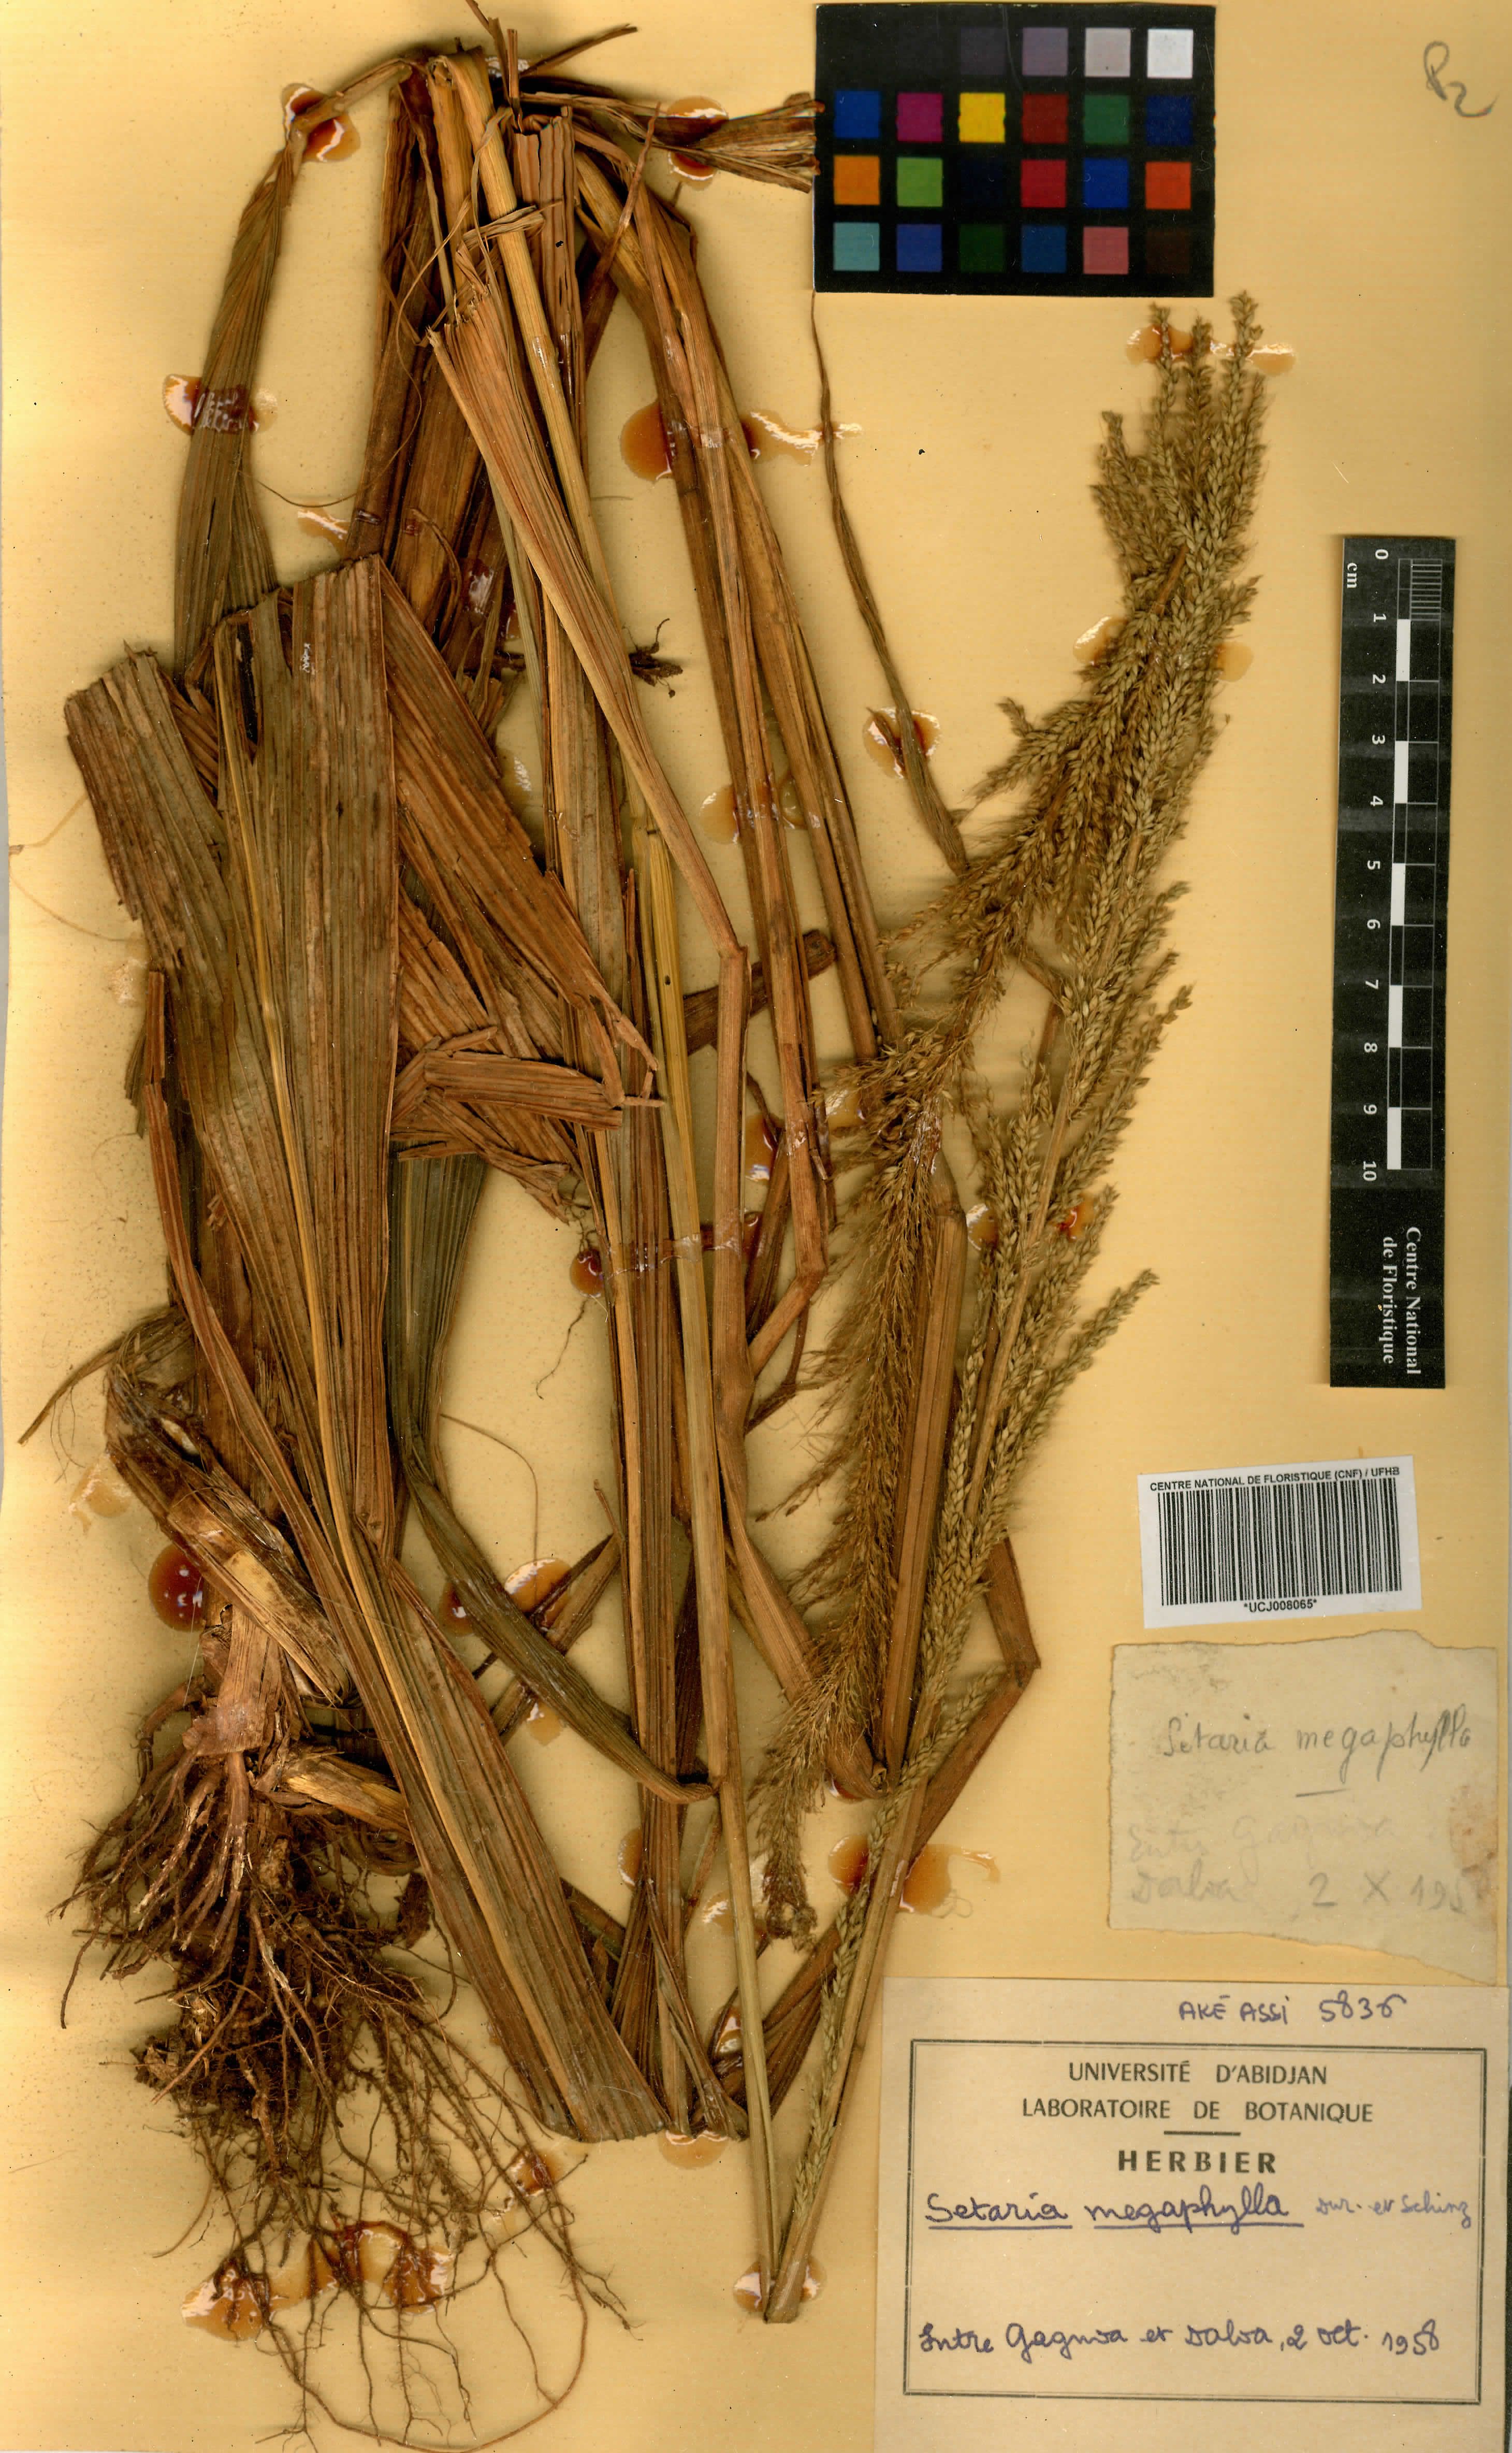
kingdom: Plantae
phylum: Tracheophyta
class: Liliopsida
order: Poales
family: Poaceae
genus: Setaria
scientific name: Setaria megaphylla
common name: Bigleaf bristlegrass
